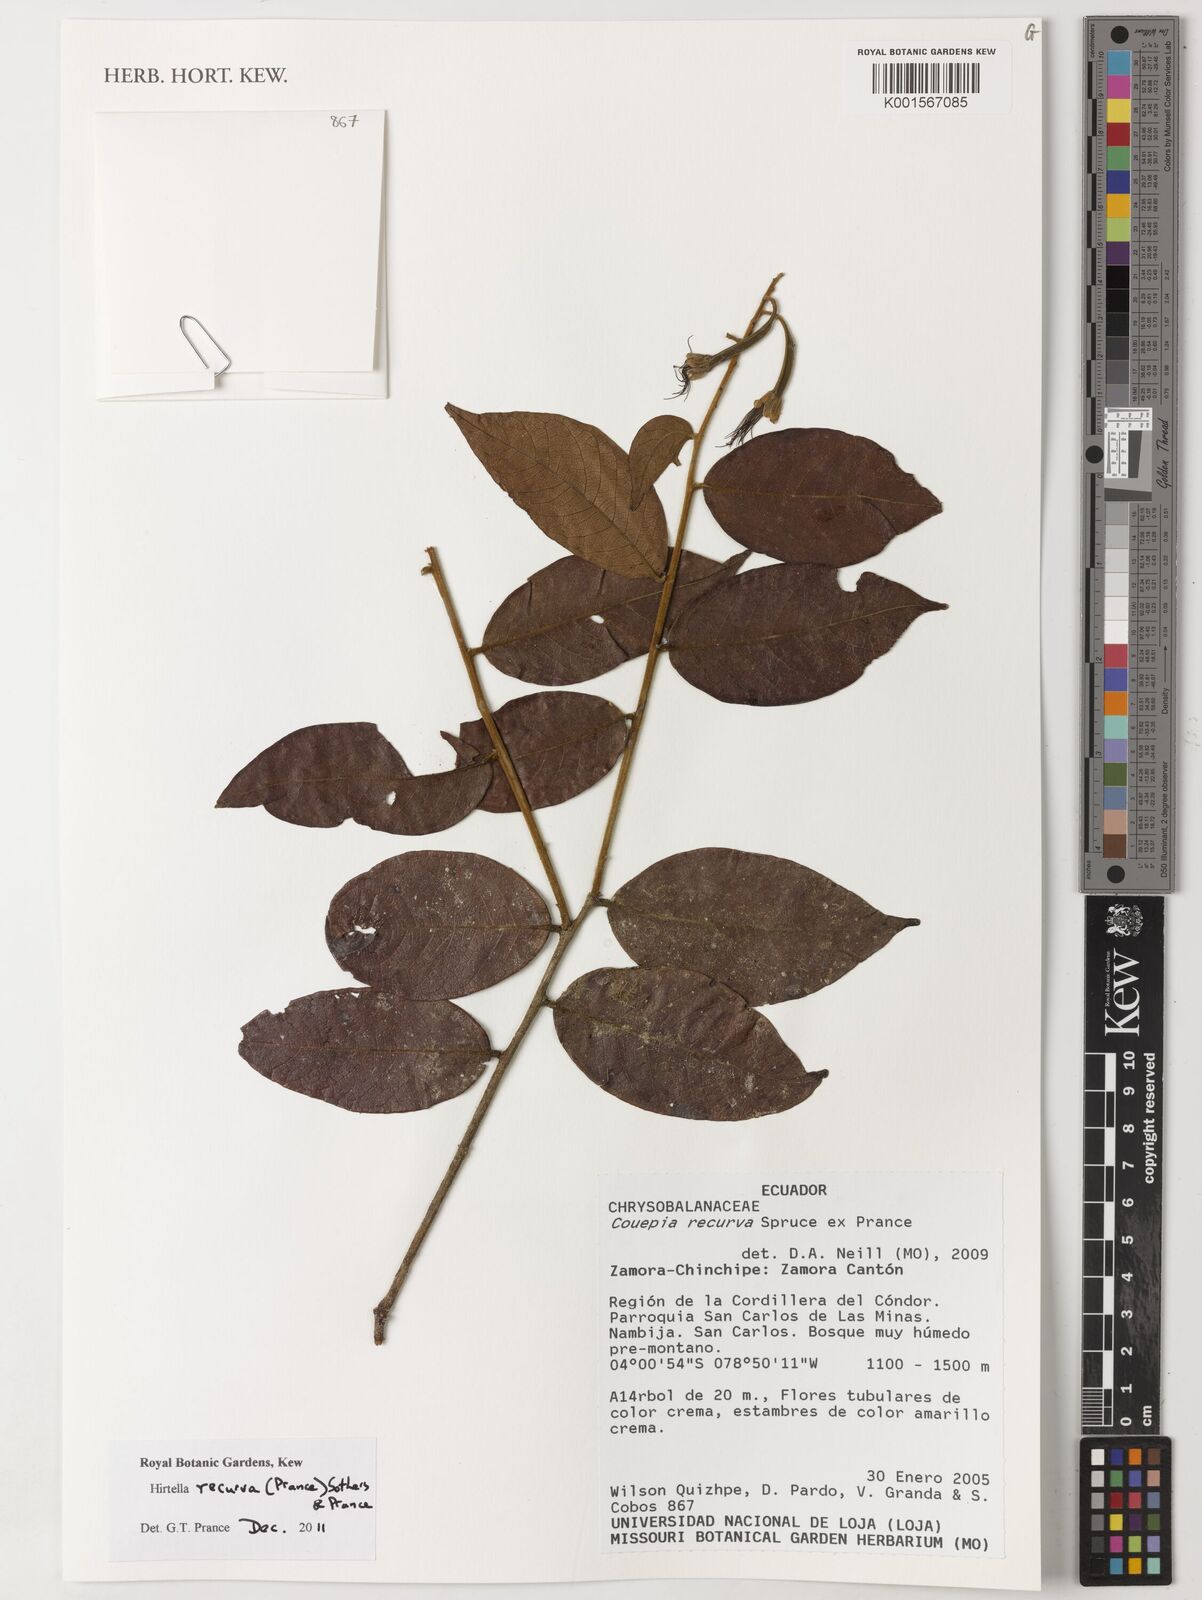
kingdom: Plantae
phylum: Tracheophyta
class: Magnoliopsida
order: Malpighiales
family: Chrysobalanaceae
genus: Hirtella
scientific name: Hirtella recurva
